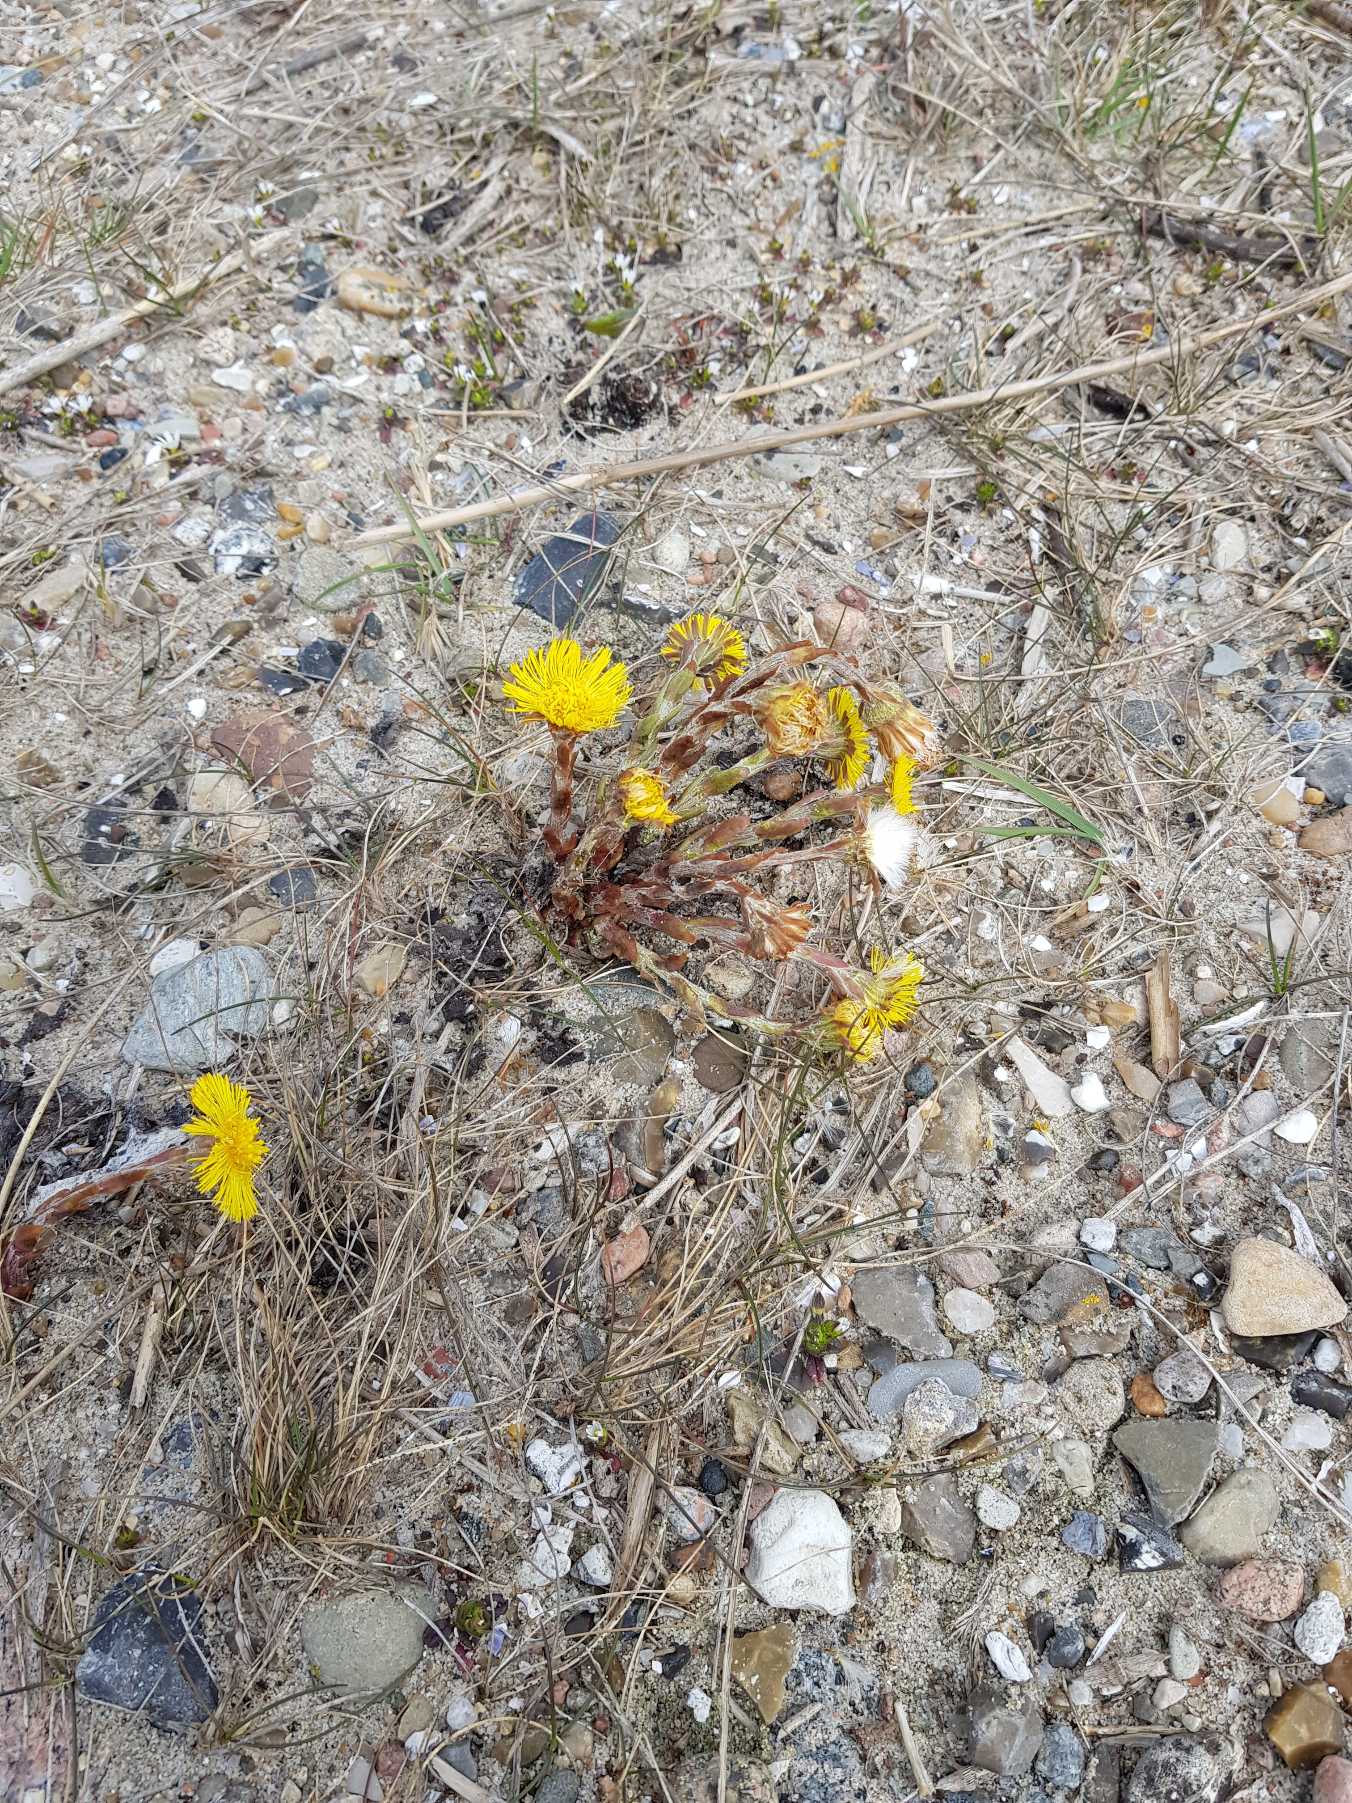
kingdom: Plantae
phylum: Tracheophyta
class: Magnoliopsida
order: Asterales
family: Asteraceae
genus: Tussilago
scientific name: Tussilago farfara
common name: Følfod
